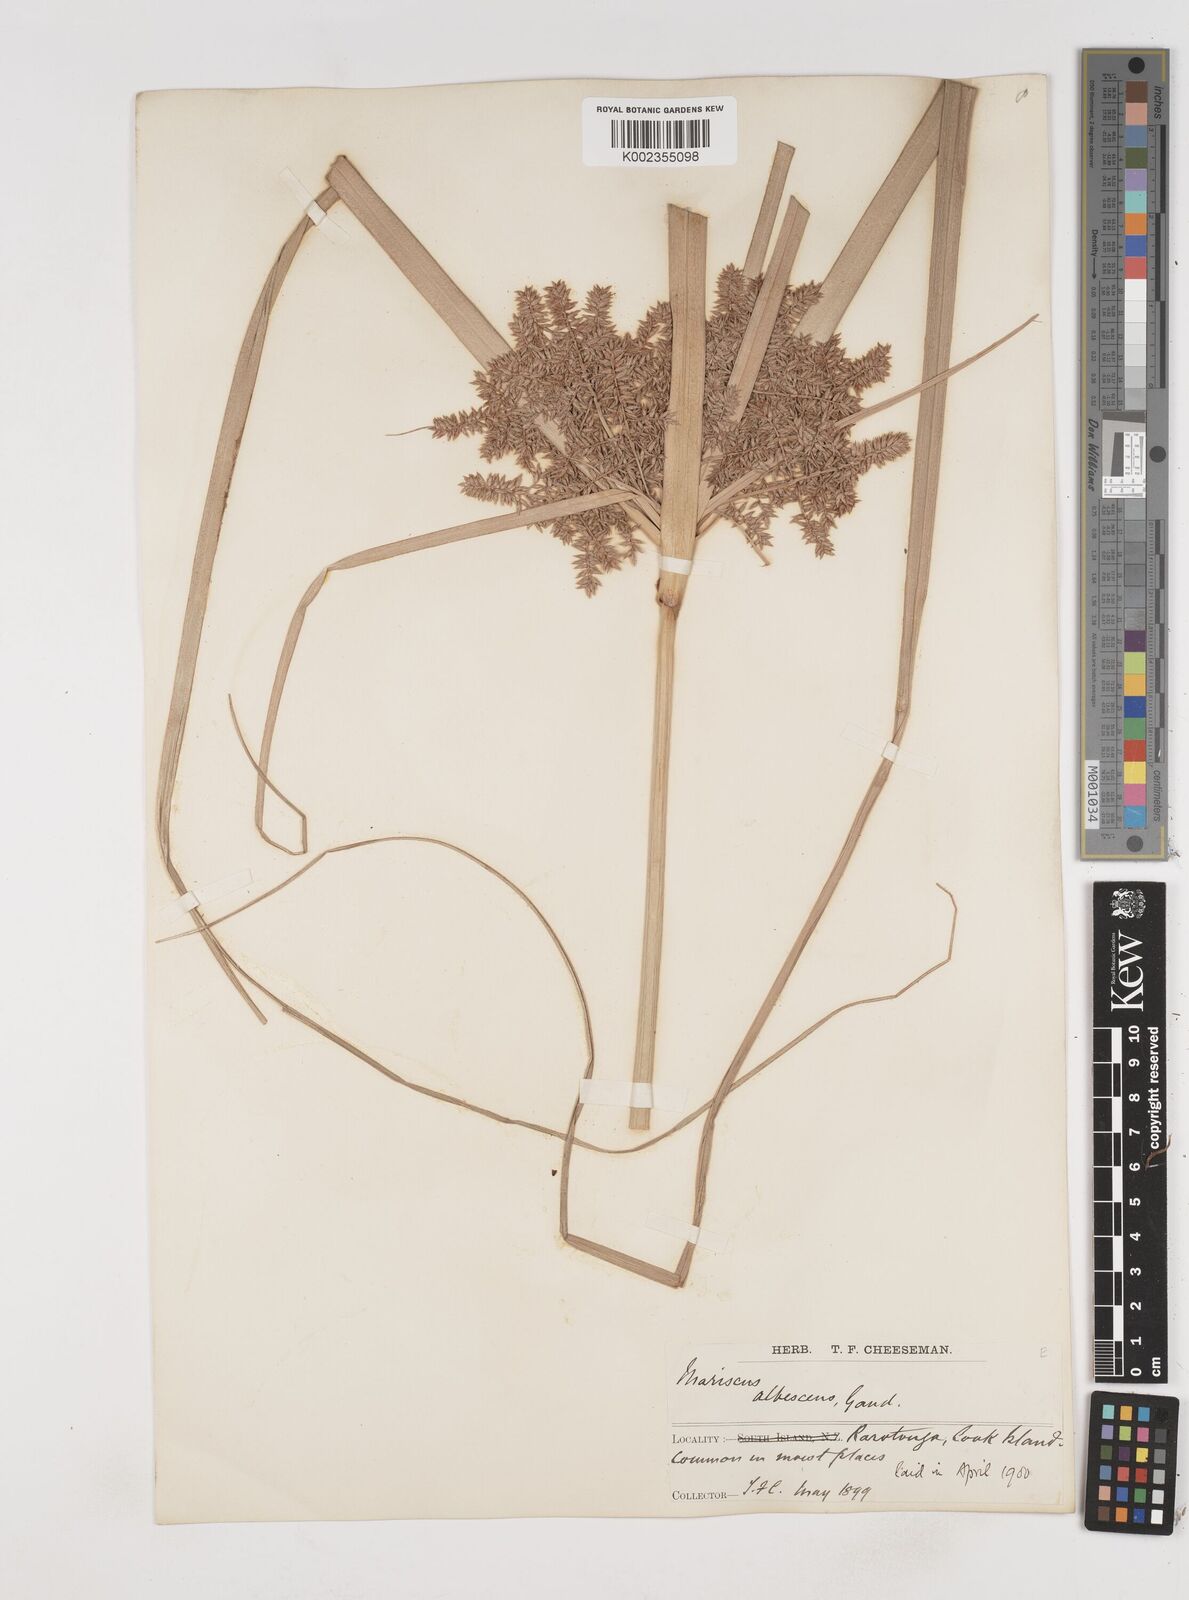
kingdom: Plantae
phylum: Tracheophyta
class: Liliopsida
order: Poales
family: Cyperaceae
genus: Cyperus
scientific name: Cyperus javanicus
